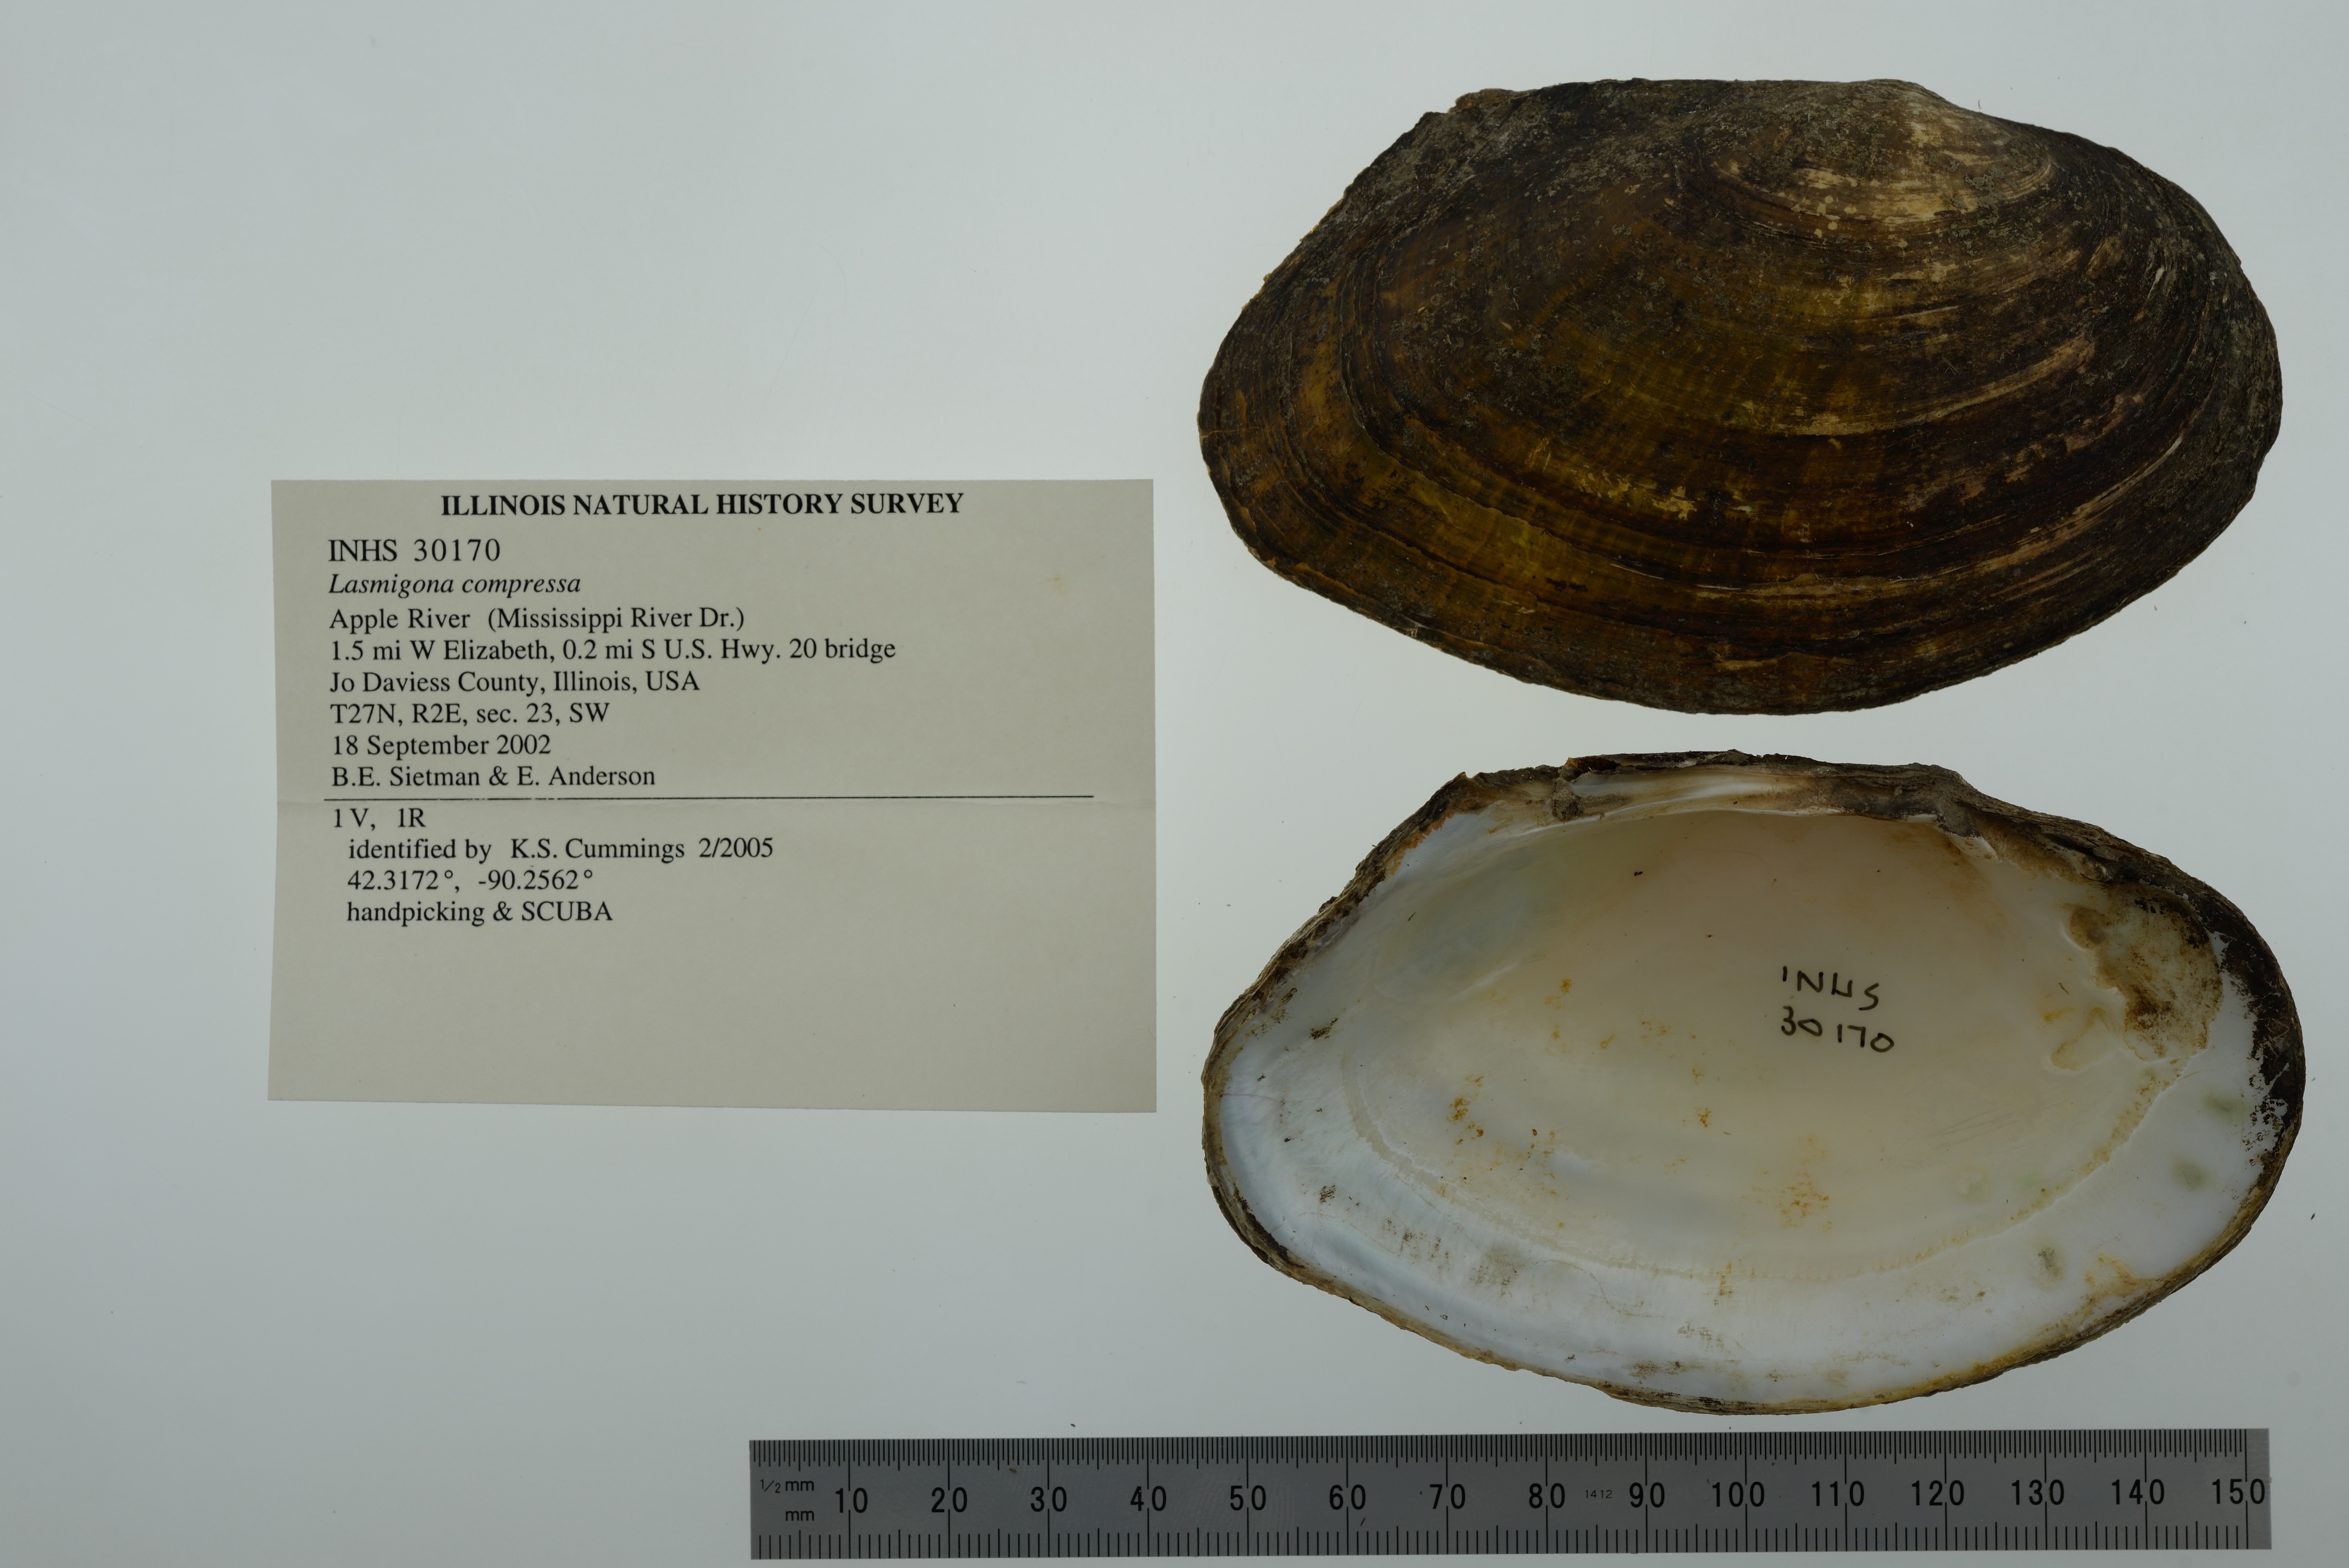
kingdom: Animalia
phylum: Mollusca
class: Bivalvia
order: Unionida
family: Unionidae
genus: Lasmigona
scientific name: Lasmigona compressa
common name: Creek heelsplitter
